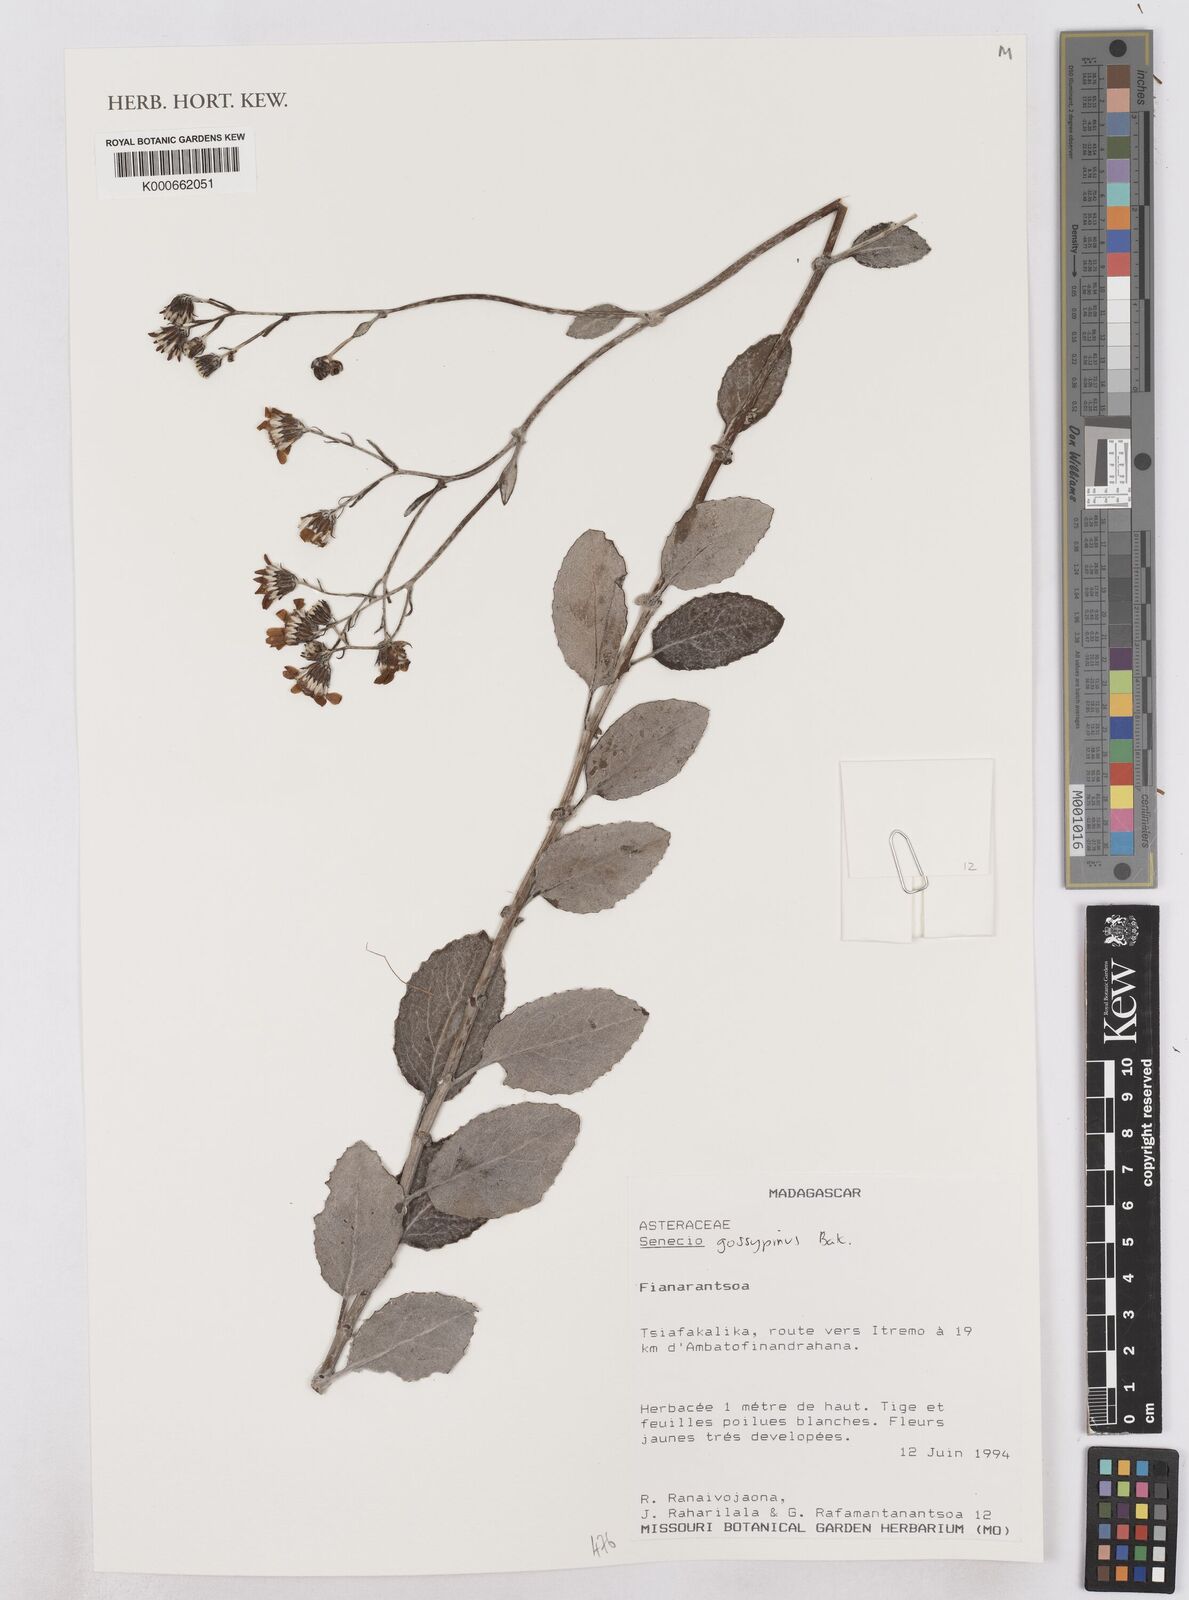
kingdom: Plantae
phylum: Tracheophyta
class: Magnoliopsida
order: Asterales
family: Asteraceae
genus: Senecio
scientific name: Senecio gossypinus
